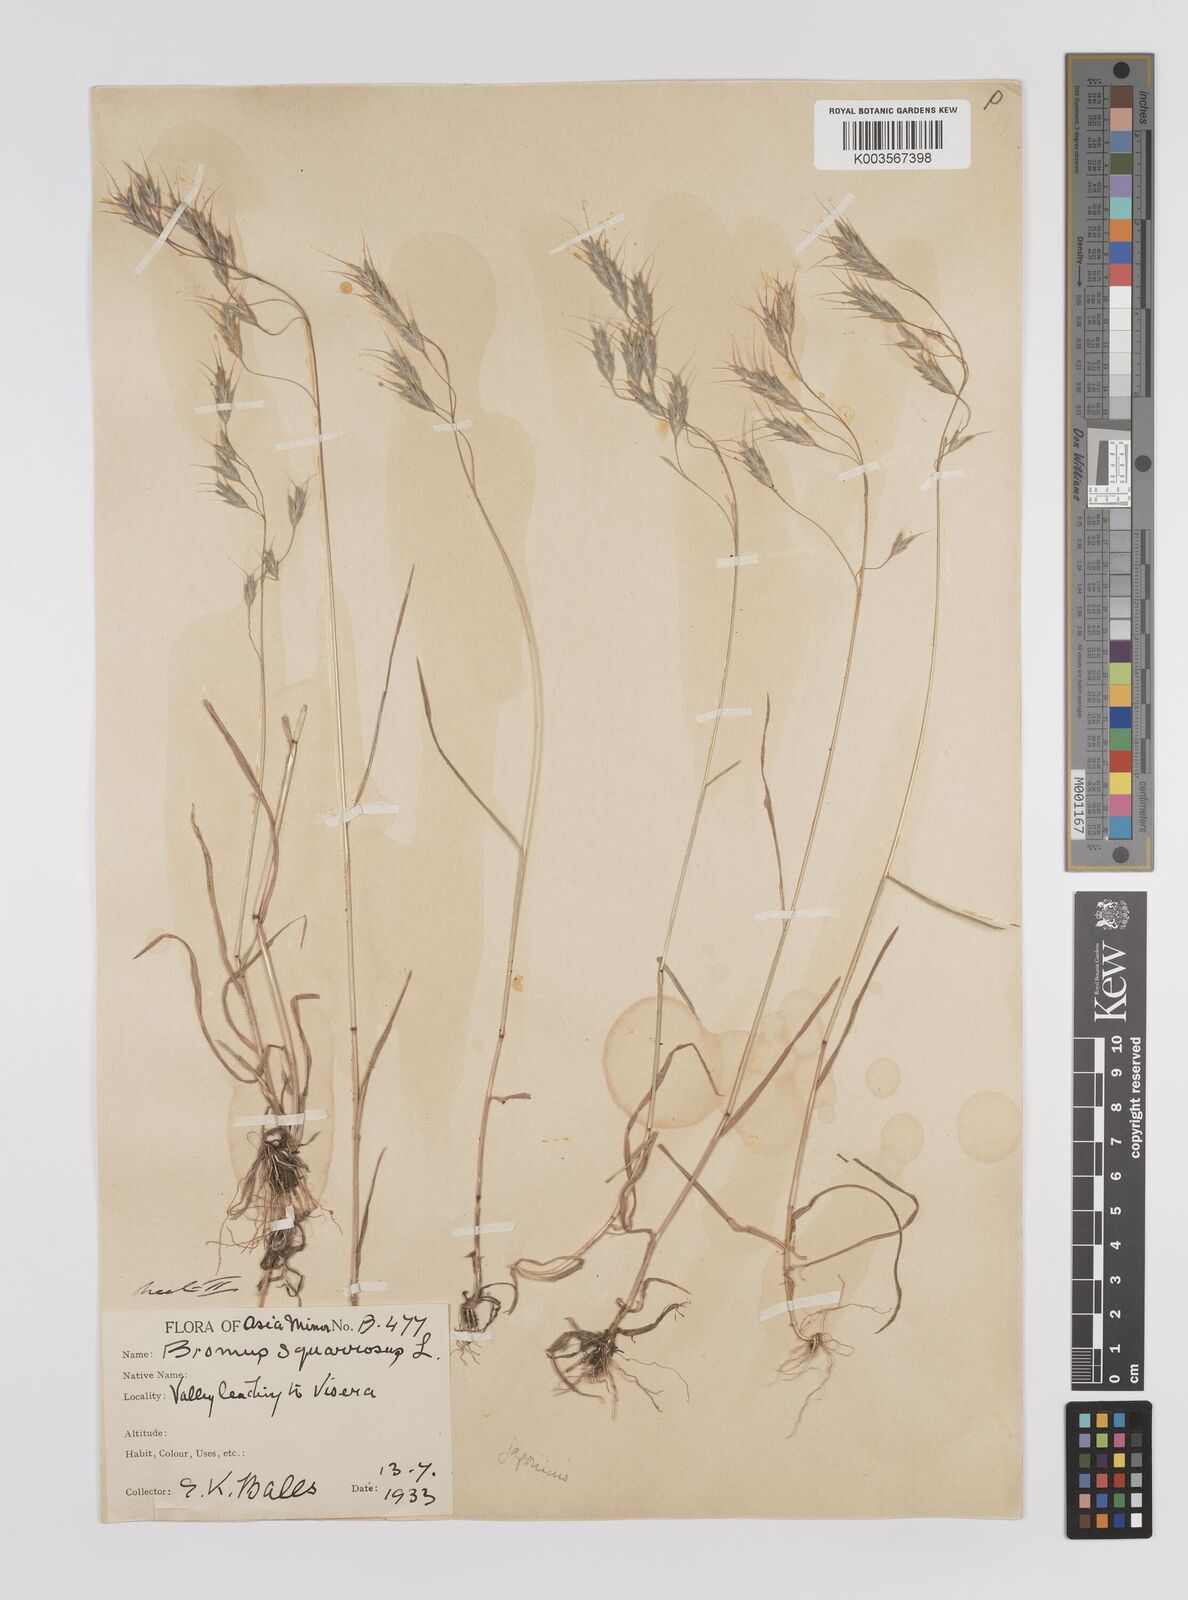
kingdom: Plantae
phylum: Tracheophyta
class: Liliopsida
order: Poales
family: Poaceae
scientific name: Poaceae
